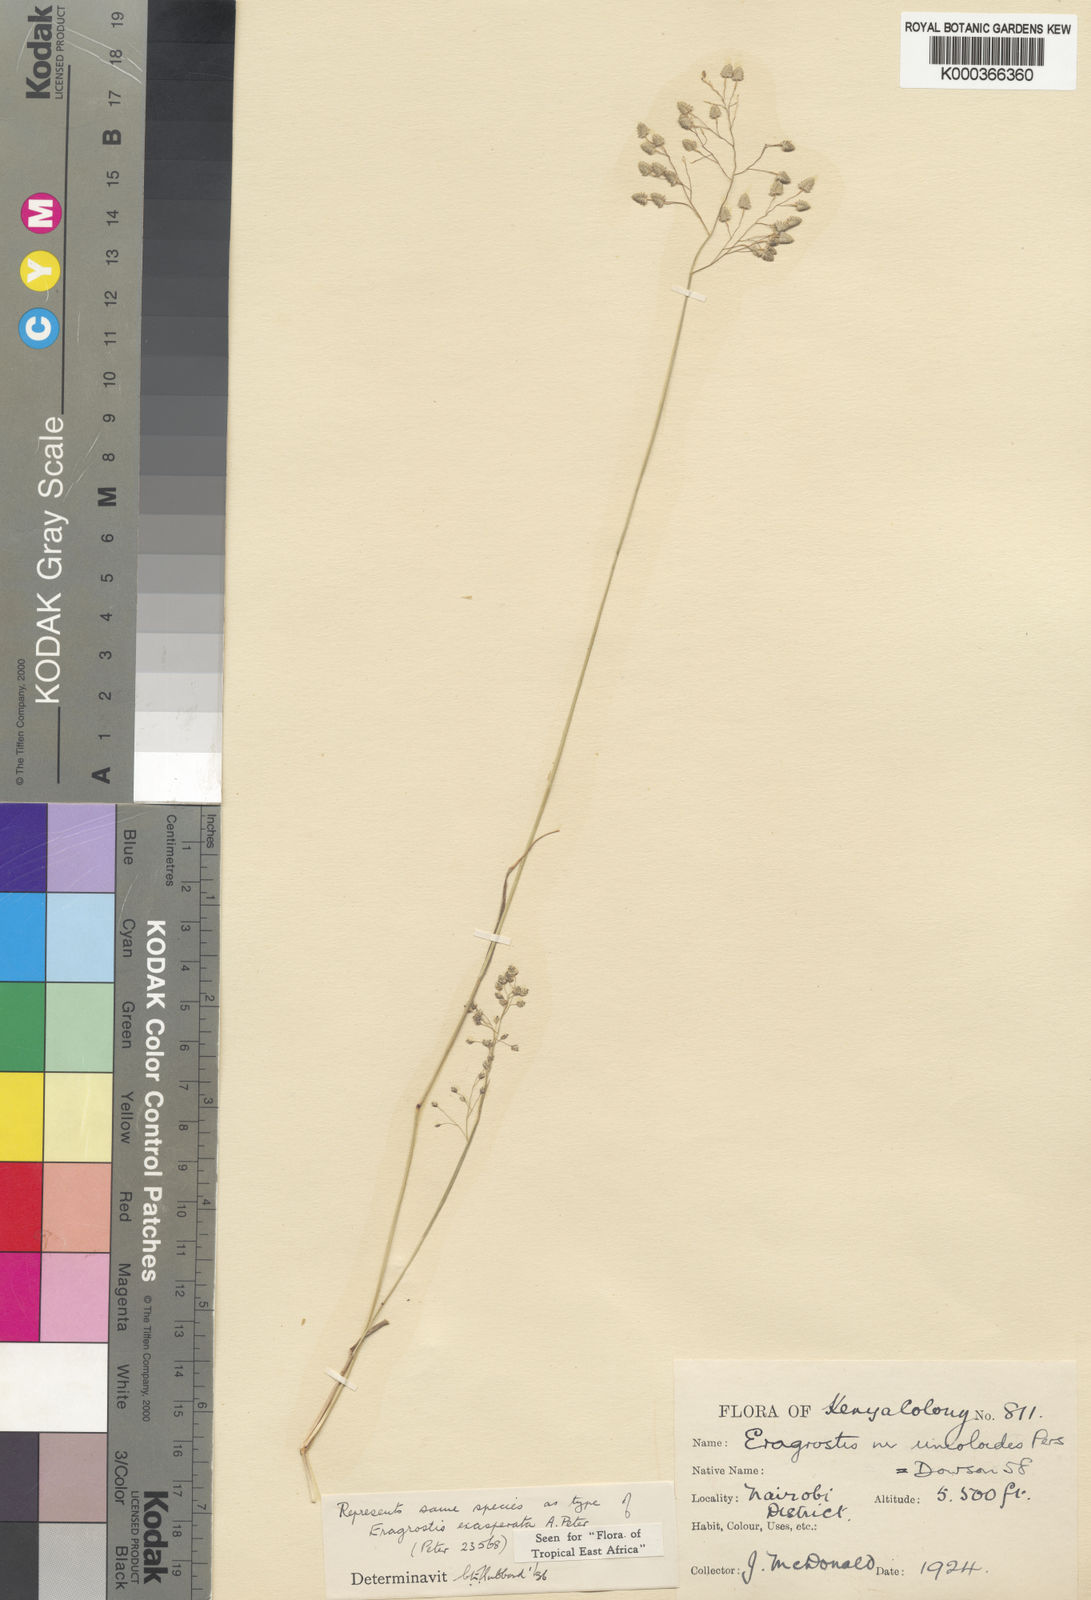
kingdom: Plantae
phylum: Tracheophyta
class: Liliopsida
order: Poales
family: Poaceae
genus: Eragrostis
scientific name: Eragrostis exasperata
